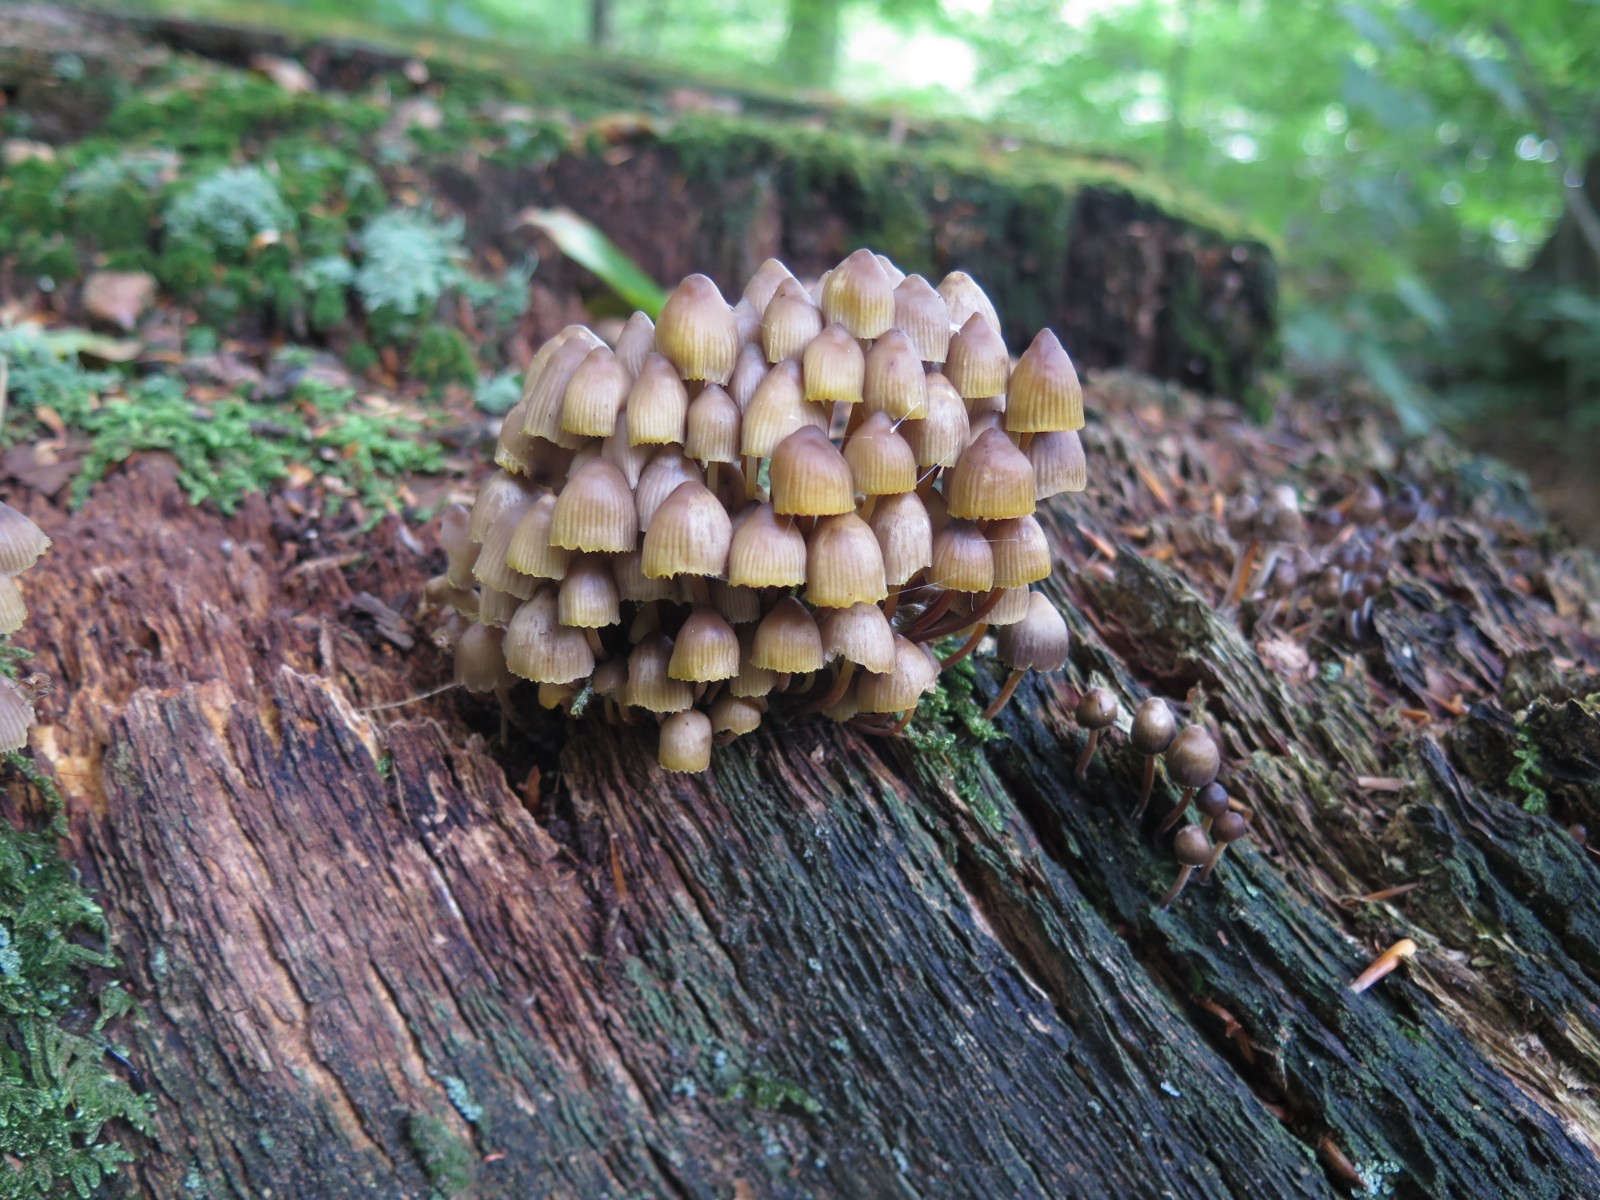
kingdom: Fungi
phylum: Basidiomycota
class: Agaricomycetes
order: Agaricales
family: Mycenaceae
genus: Mycena
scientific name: Mycena inclinata
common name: nikkende huesvamp
